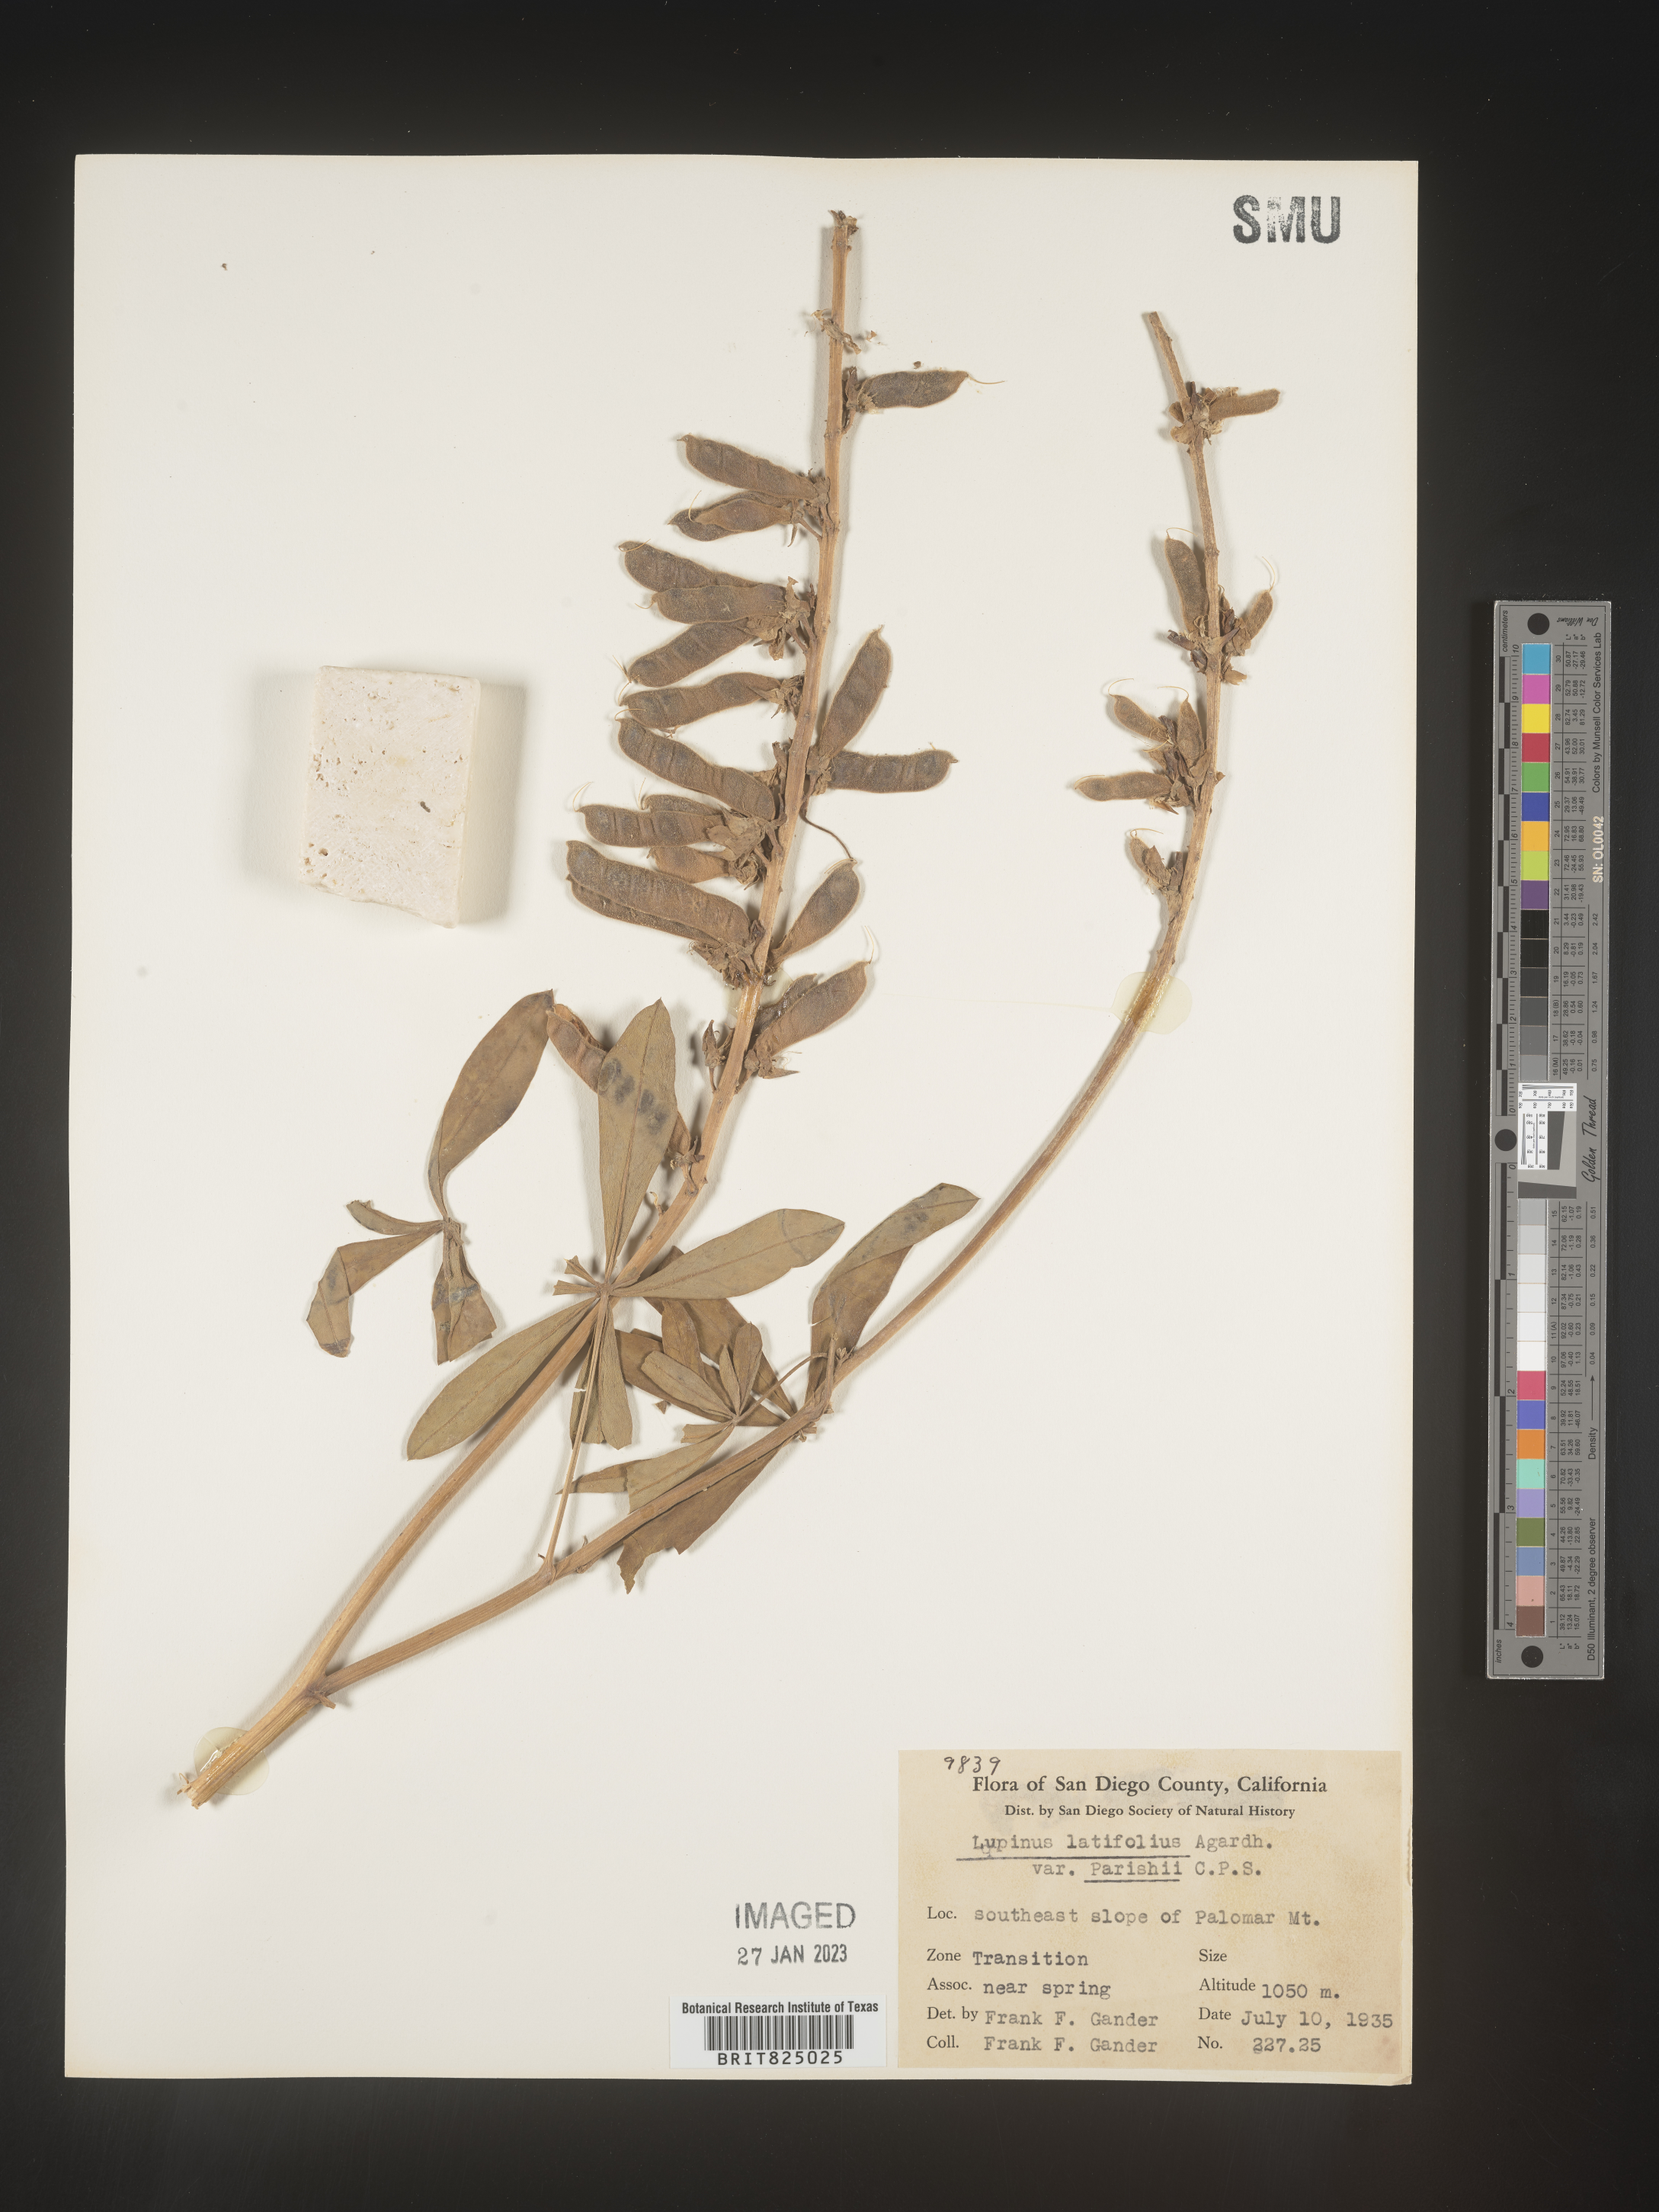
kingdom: Plantae
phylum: Tracheophyta
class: Magnoliopsida
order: Fabales
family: Fabaceae
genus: Lupinus
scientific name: Lupinus
